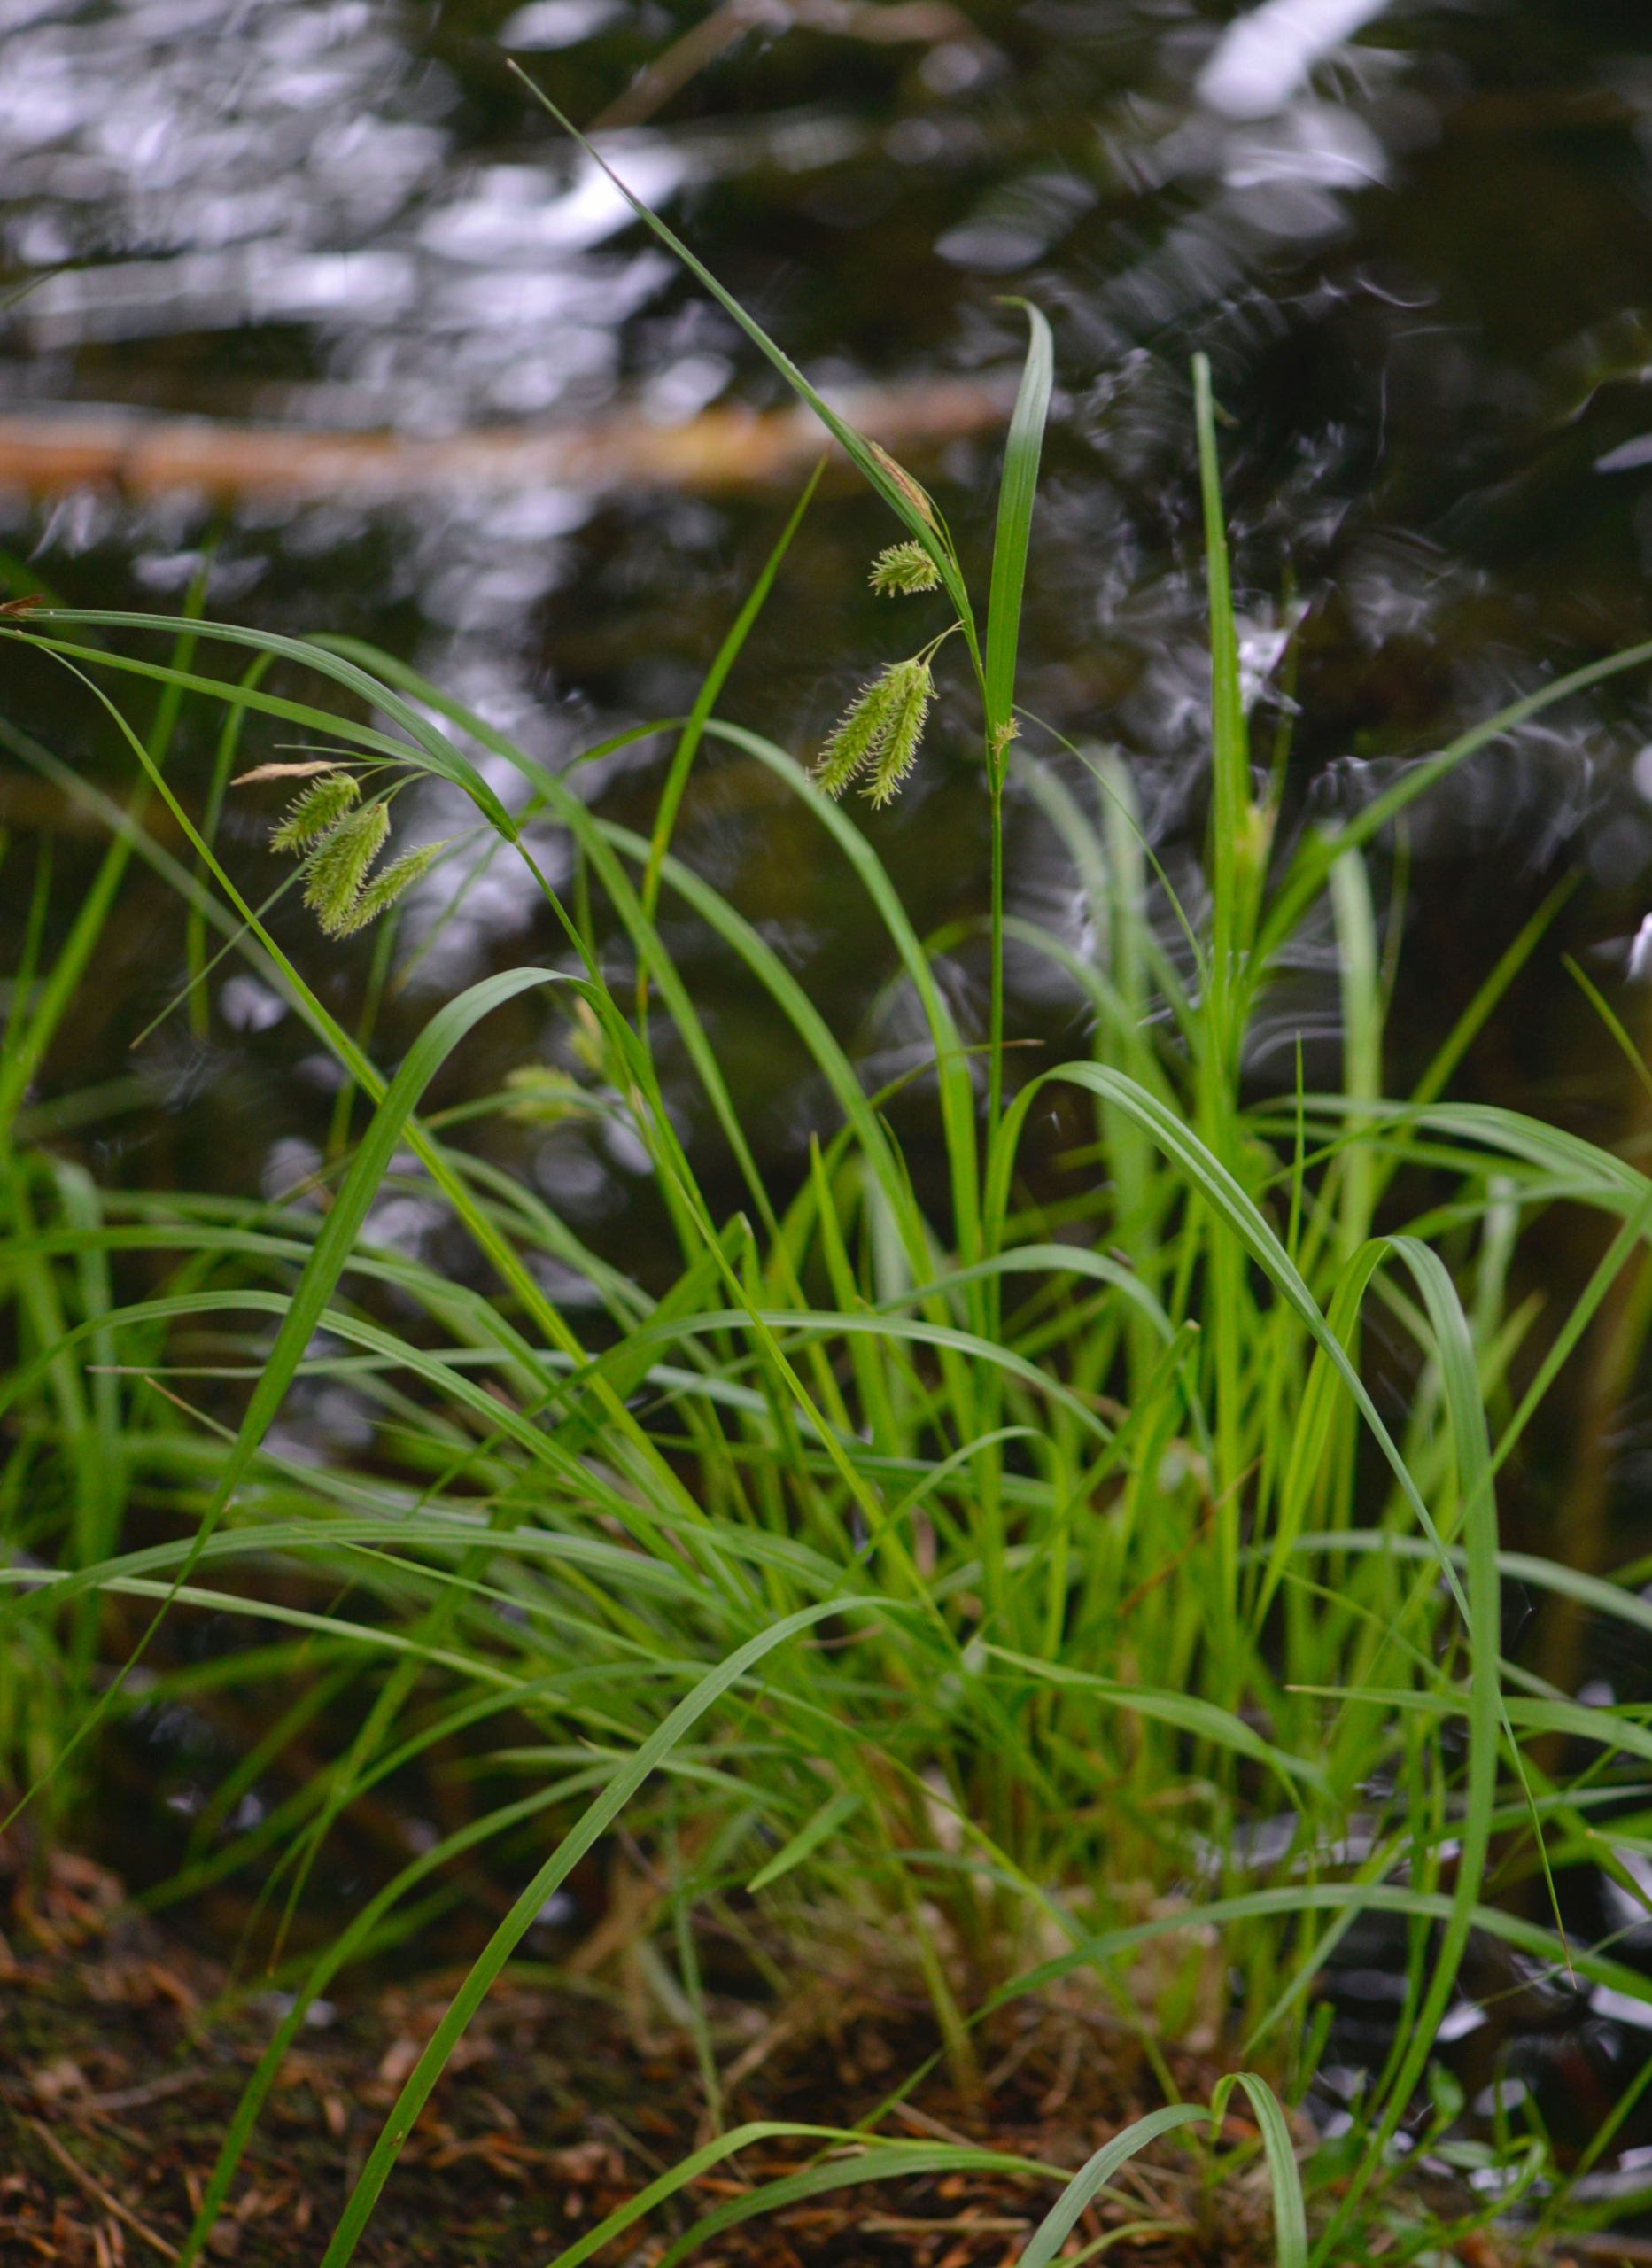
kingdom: Plantae
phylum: Tracheophyta
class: Liliopsida
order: Poales
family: Cyperaceae
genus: Carex
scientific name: Carex pseudocyperus
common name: Knippe-star
